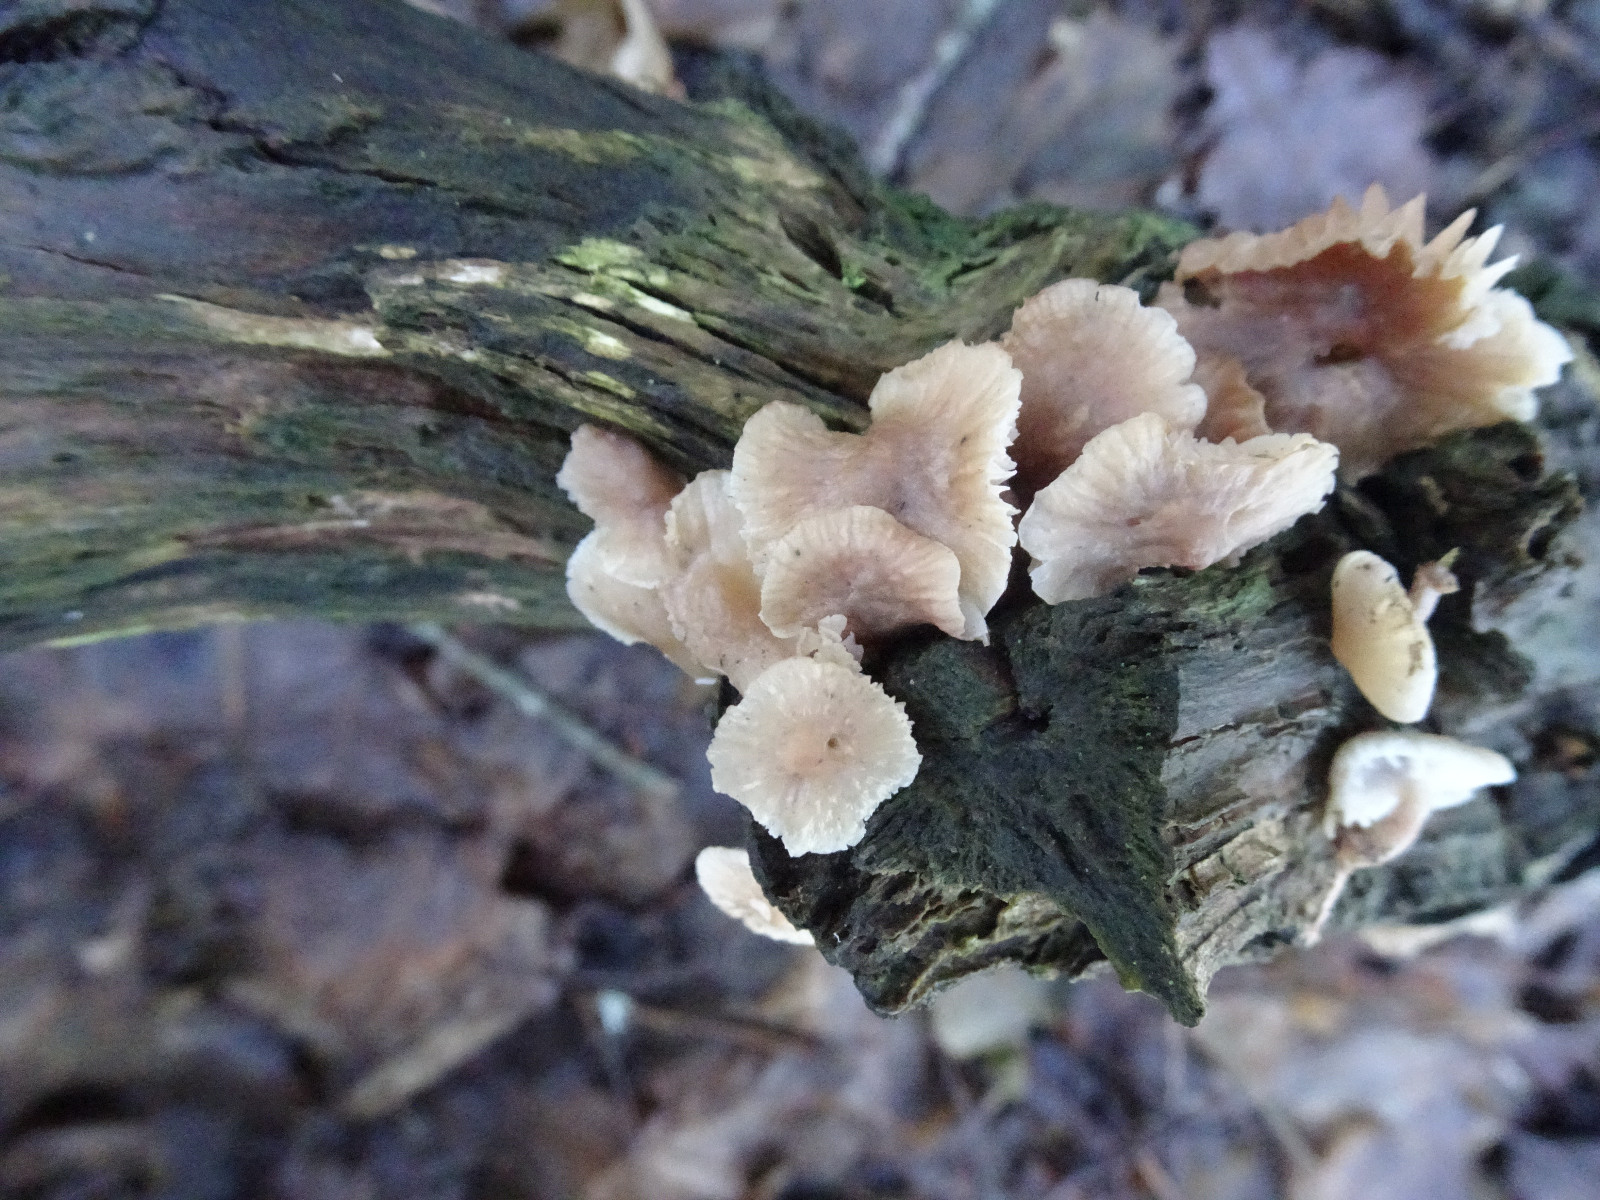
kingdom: Fungi
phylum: Basidiomycota
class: Agaricomycetes
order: Agaricales
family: Mycenaceae
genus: Mycena
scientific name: Mycena galericulata
